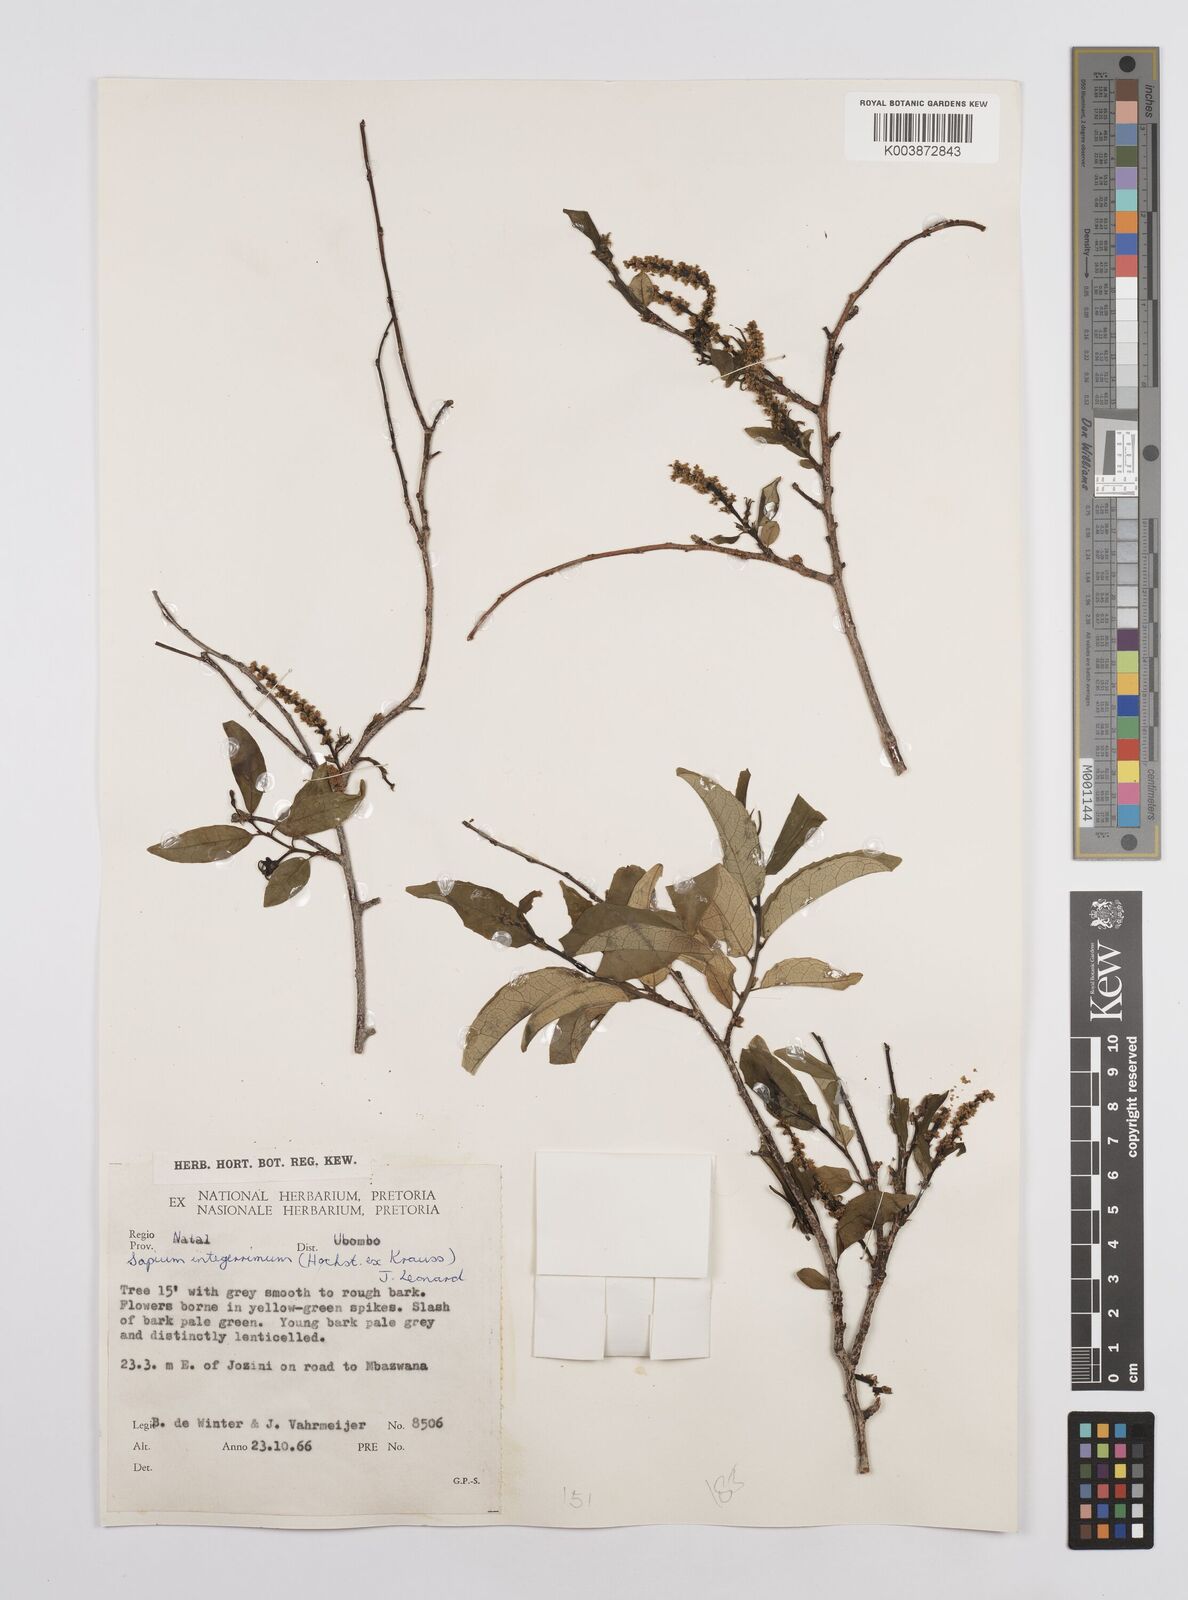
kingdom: Plantae
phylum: Tracheophyta
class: Magnoliopsida
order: Malpighiales
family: Euphorbiaceae
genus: Sclerocroton
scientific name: Sclerocroton integerrimus
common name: Duiker berry
